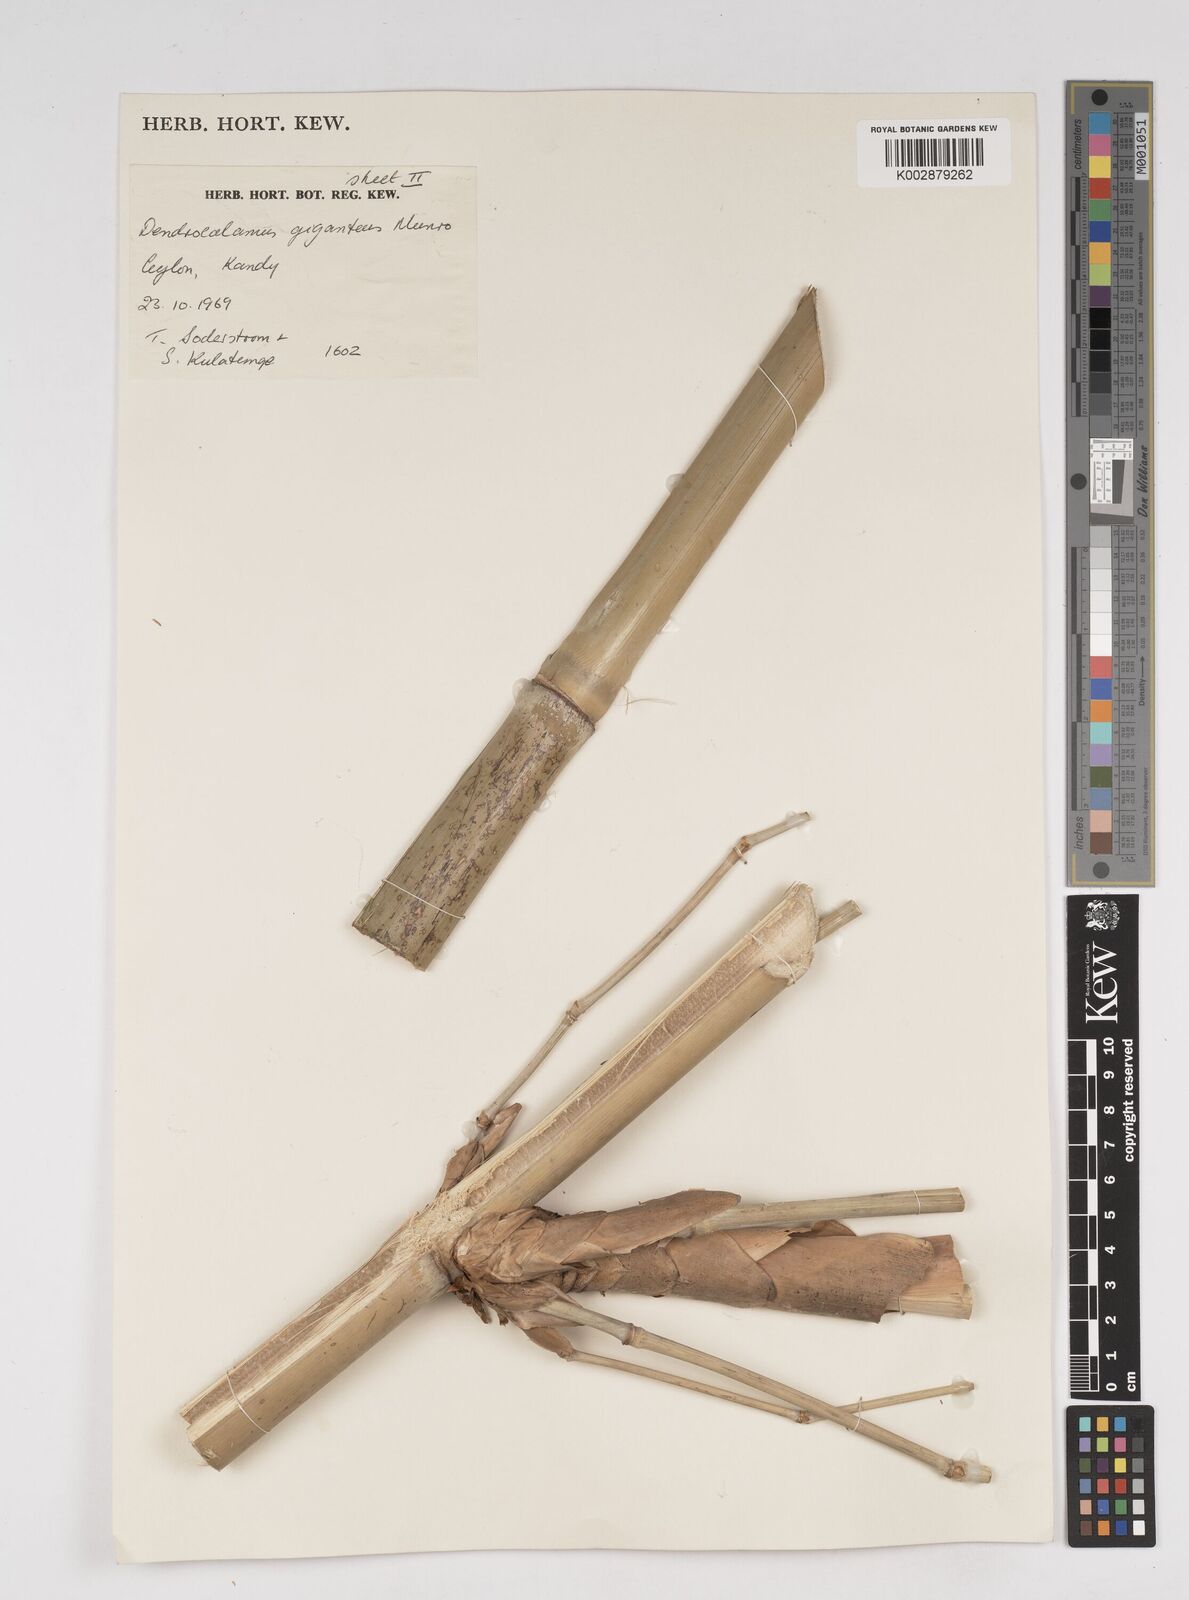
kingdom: Plantae
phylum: Tracheophyta
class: Liliopsida
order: Poales
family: Poaceae
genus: Dendrocalamus
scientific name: Dendrocalamus giganteus
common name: Giant bamboo
